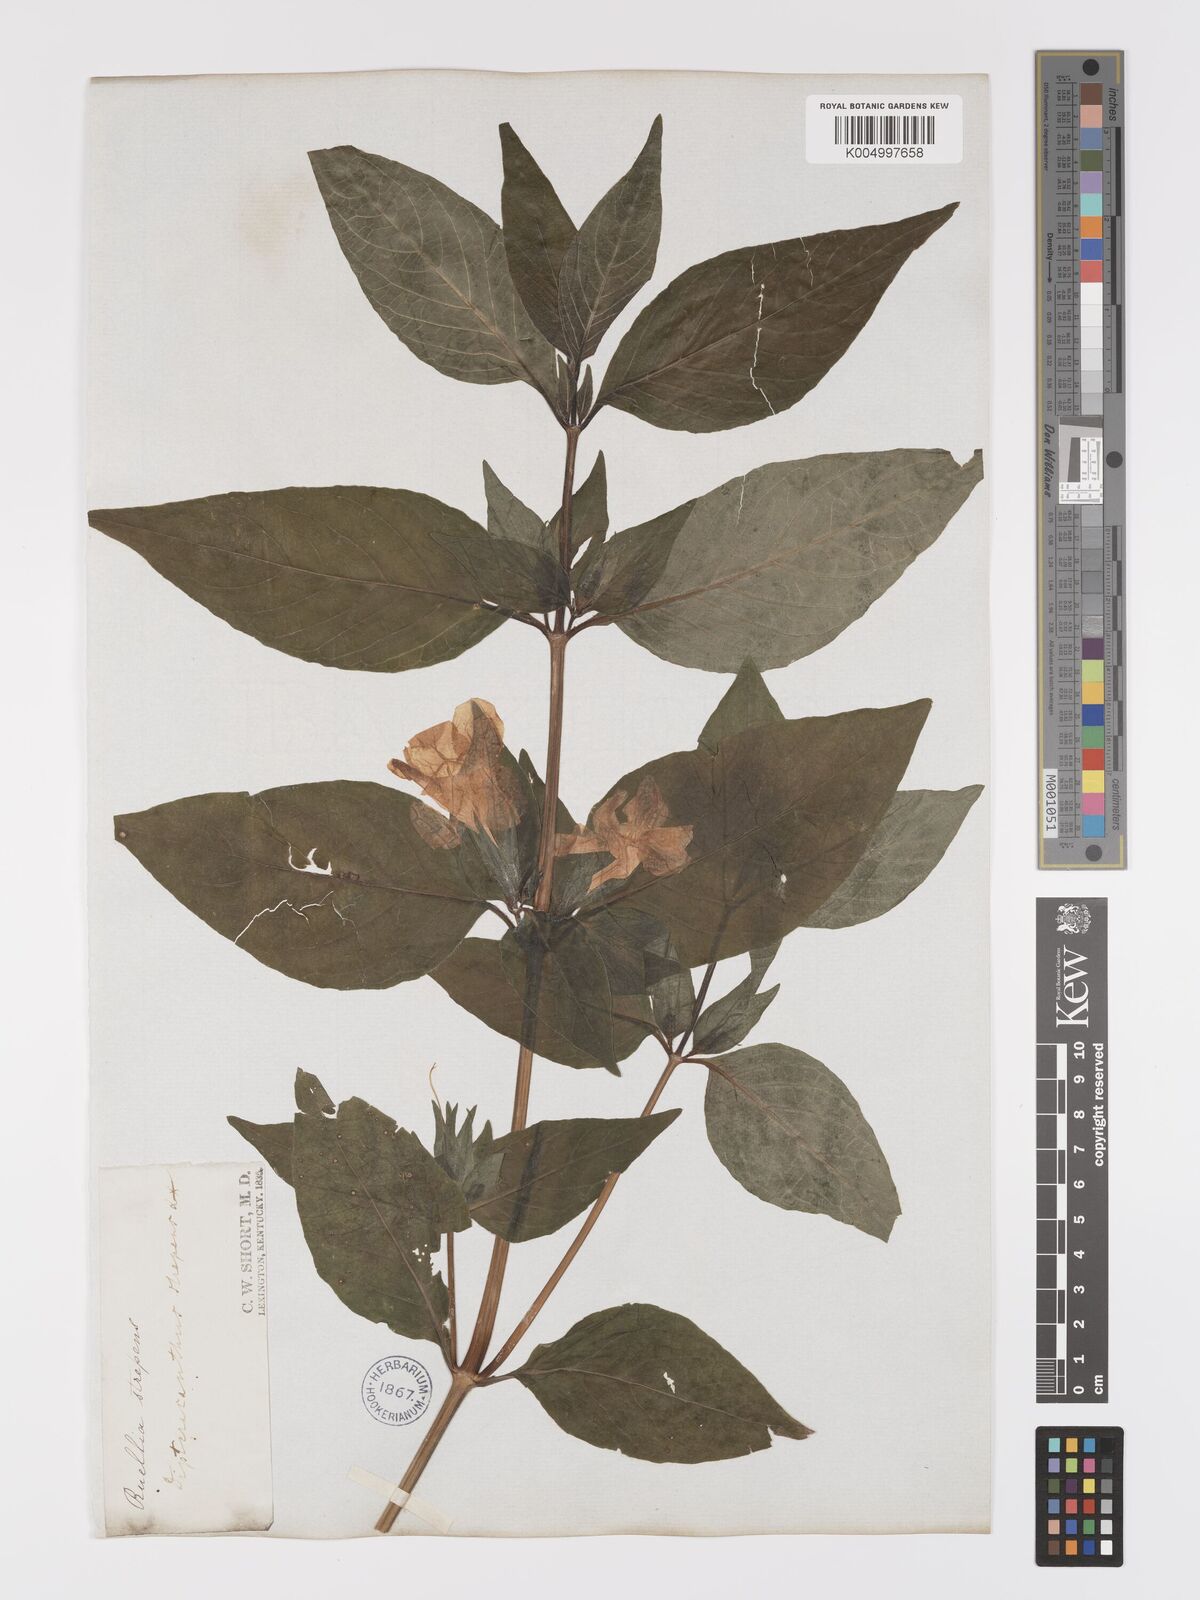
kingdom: Plantae
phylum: Tracheophyta
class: Magnoliopsida
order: Lamiales
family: Acanthaceae
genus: Ruellia
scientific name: Ruellia strepens
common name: Limestone wild petunia
